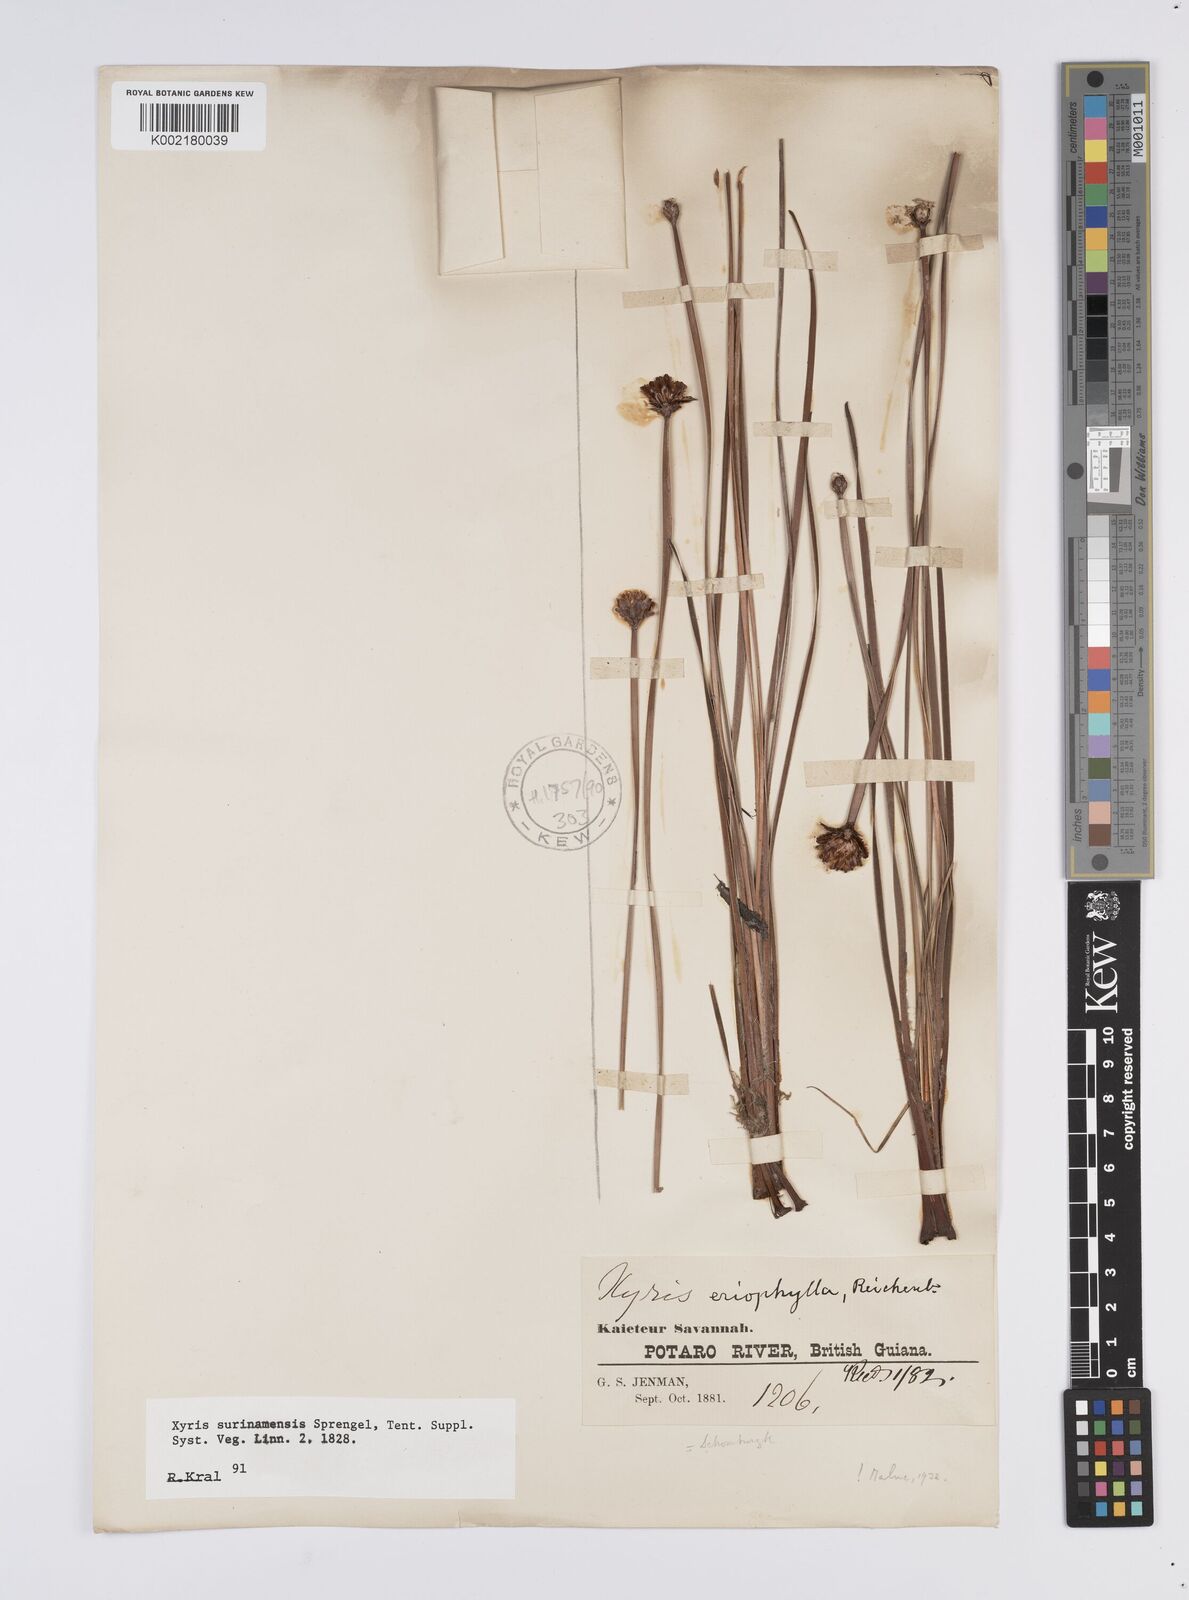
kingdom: Plantae
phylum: Tracheophyta
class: Liliopsida
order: Poales
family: Xyridaceae
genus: Xyris
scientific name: Xyris surinamensis
